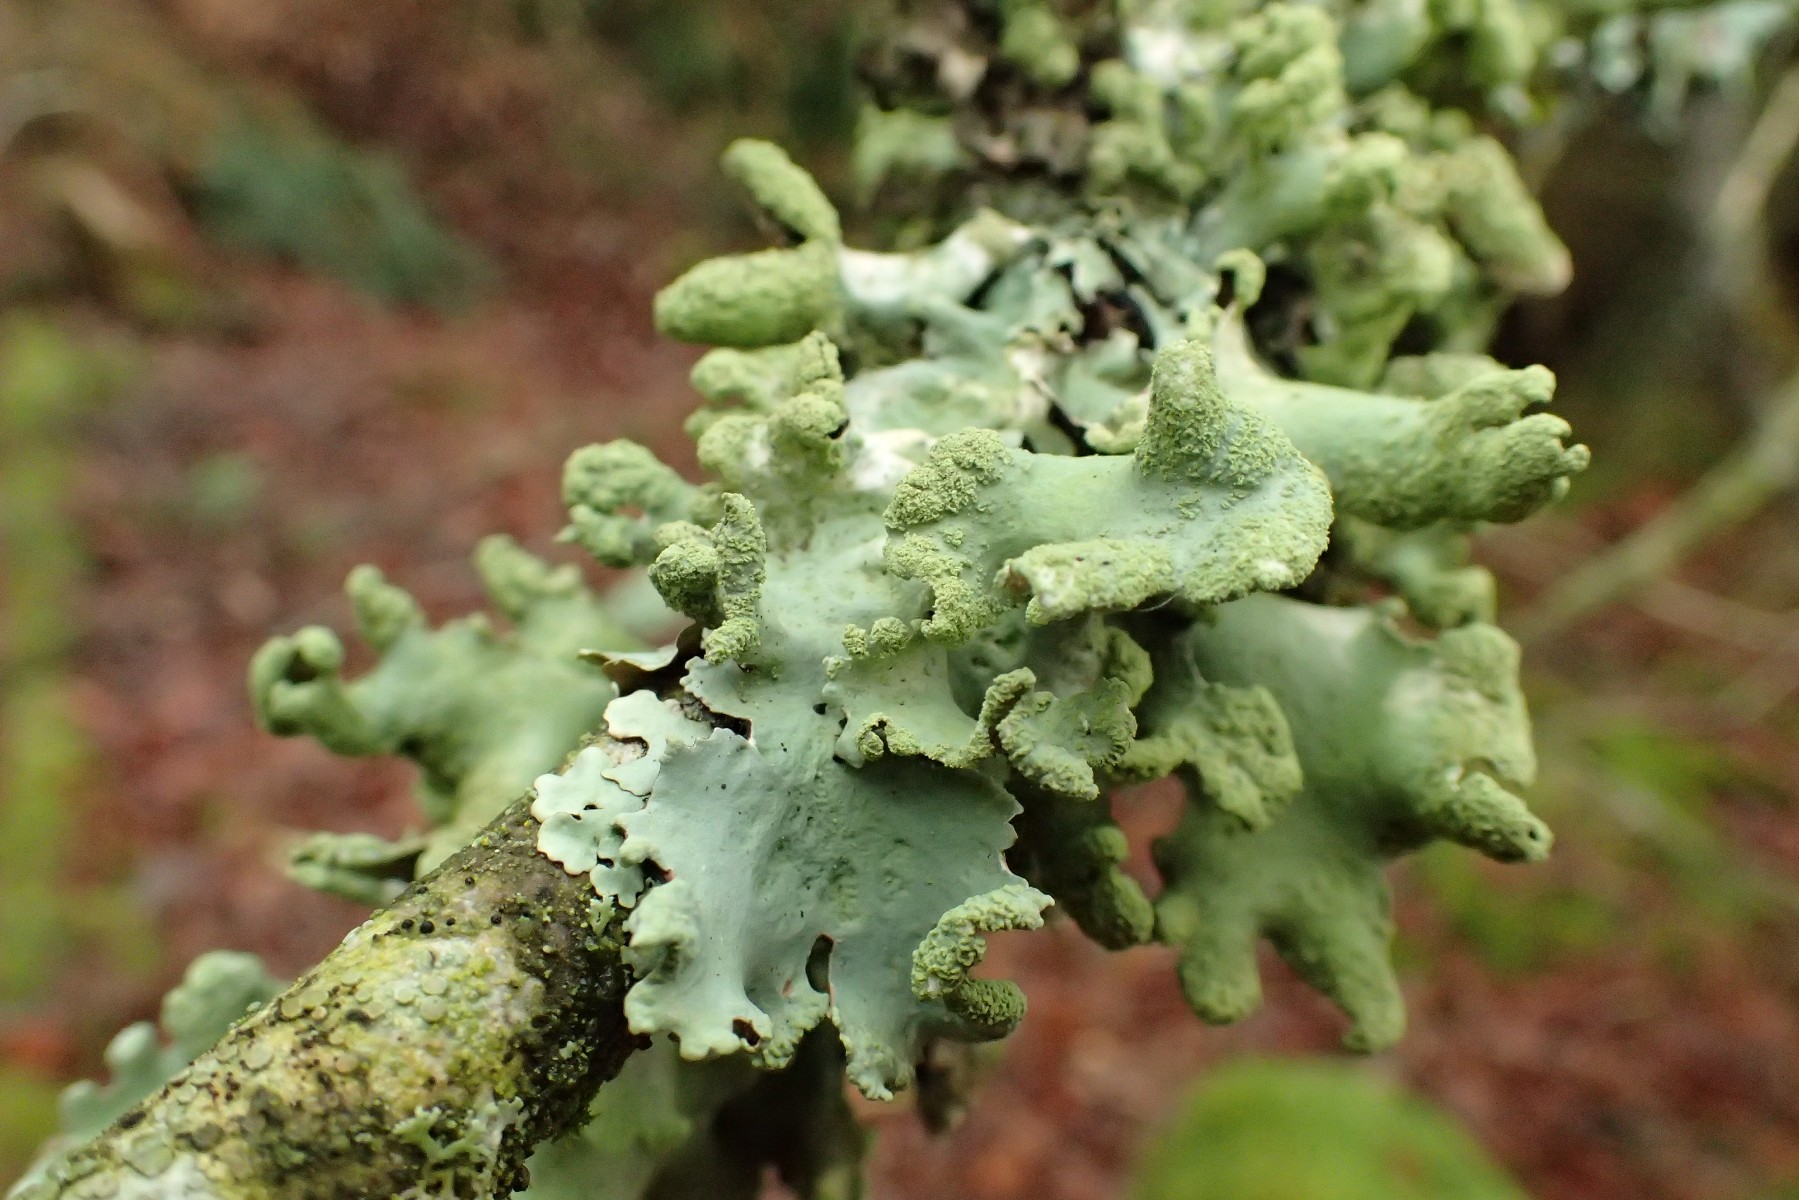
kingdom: Fungi
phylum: Ascomycota
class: Lecanoromycetes
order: Lecanorales
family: Parmeliaceae
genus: Hypotrachyna
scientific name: Hypotrachyna revoluta
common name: bleggrå skållav
